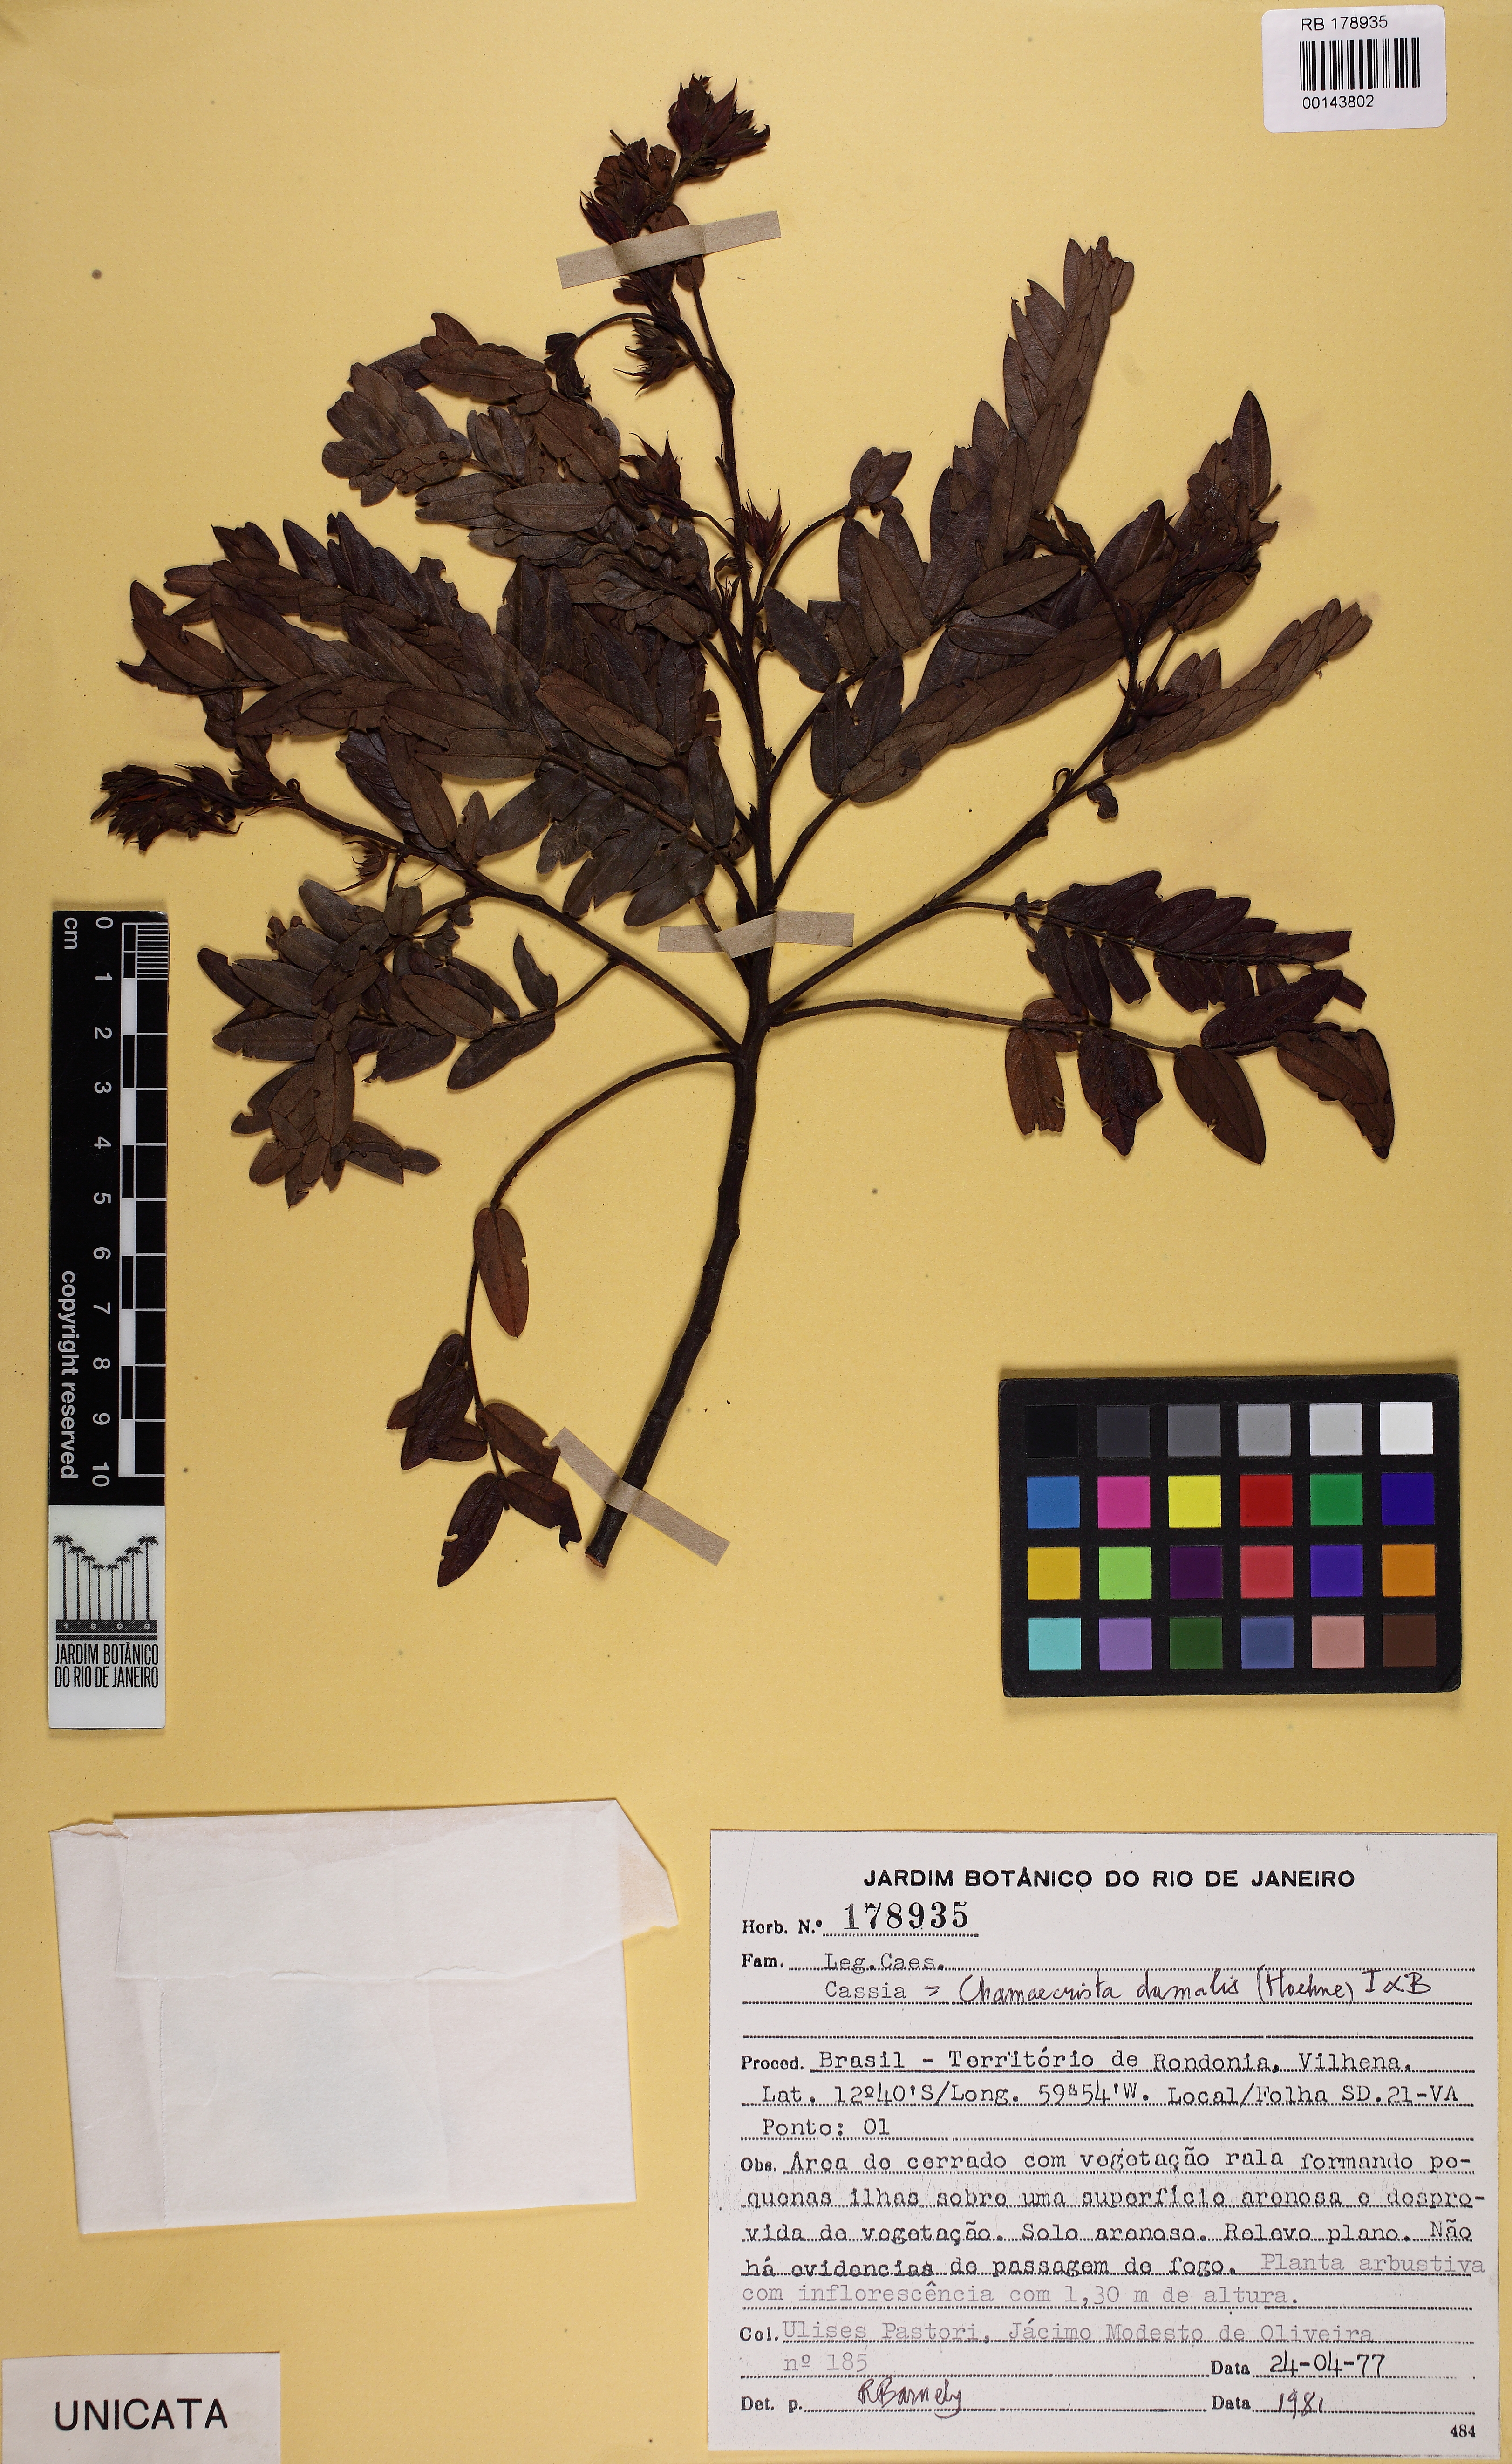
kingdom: Plantae
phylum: Tracheophyta
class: Magnoliopsida
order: Fabales
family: Fabaceae
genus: Chamaecrista
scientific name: Chamaecrista fasciculata
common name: Golden cassia
